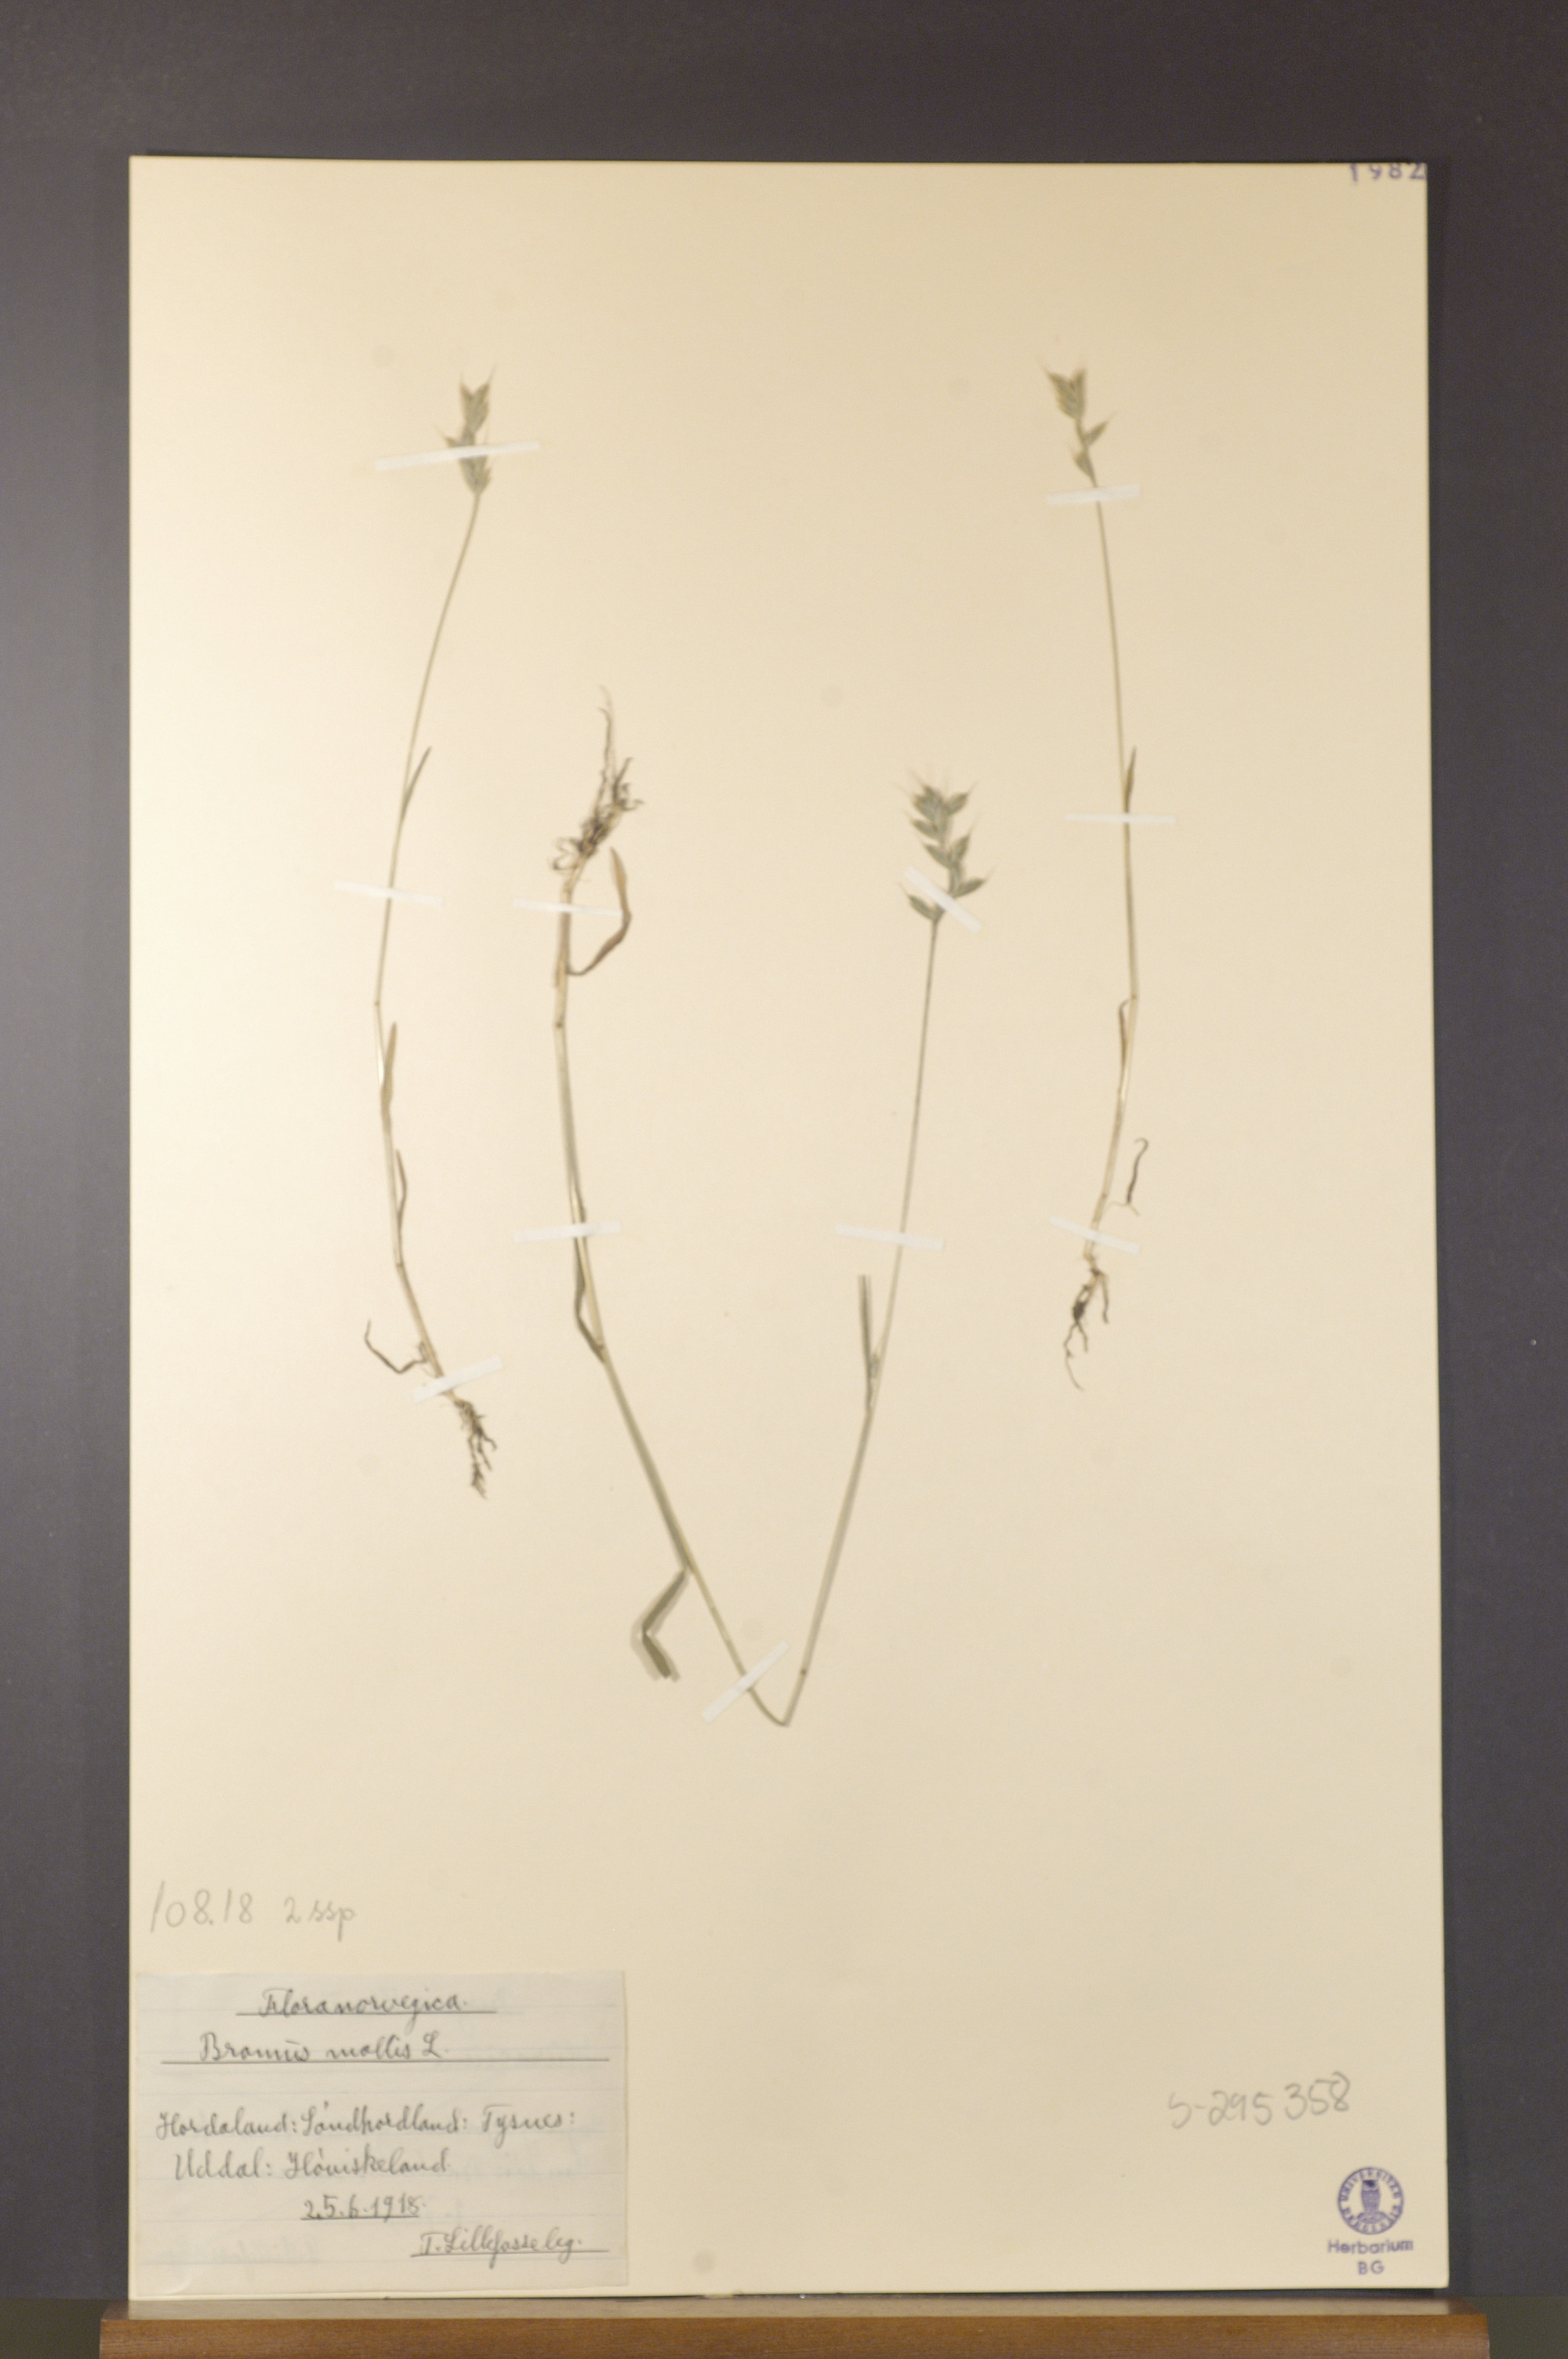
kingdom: Plantae
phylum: Tracheophyta
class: Liliopsida
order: Poales
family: Poaceae
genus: Bromus
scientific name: Bromus hordeaceus
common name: Soft brome
